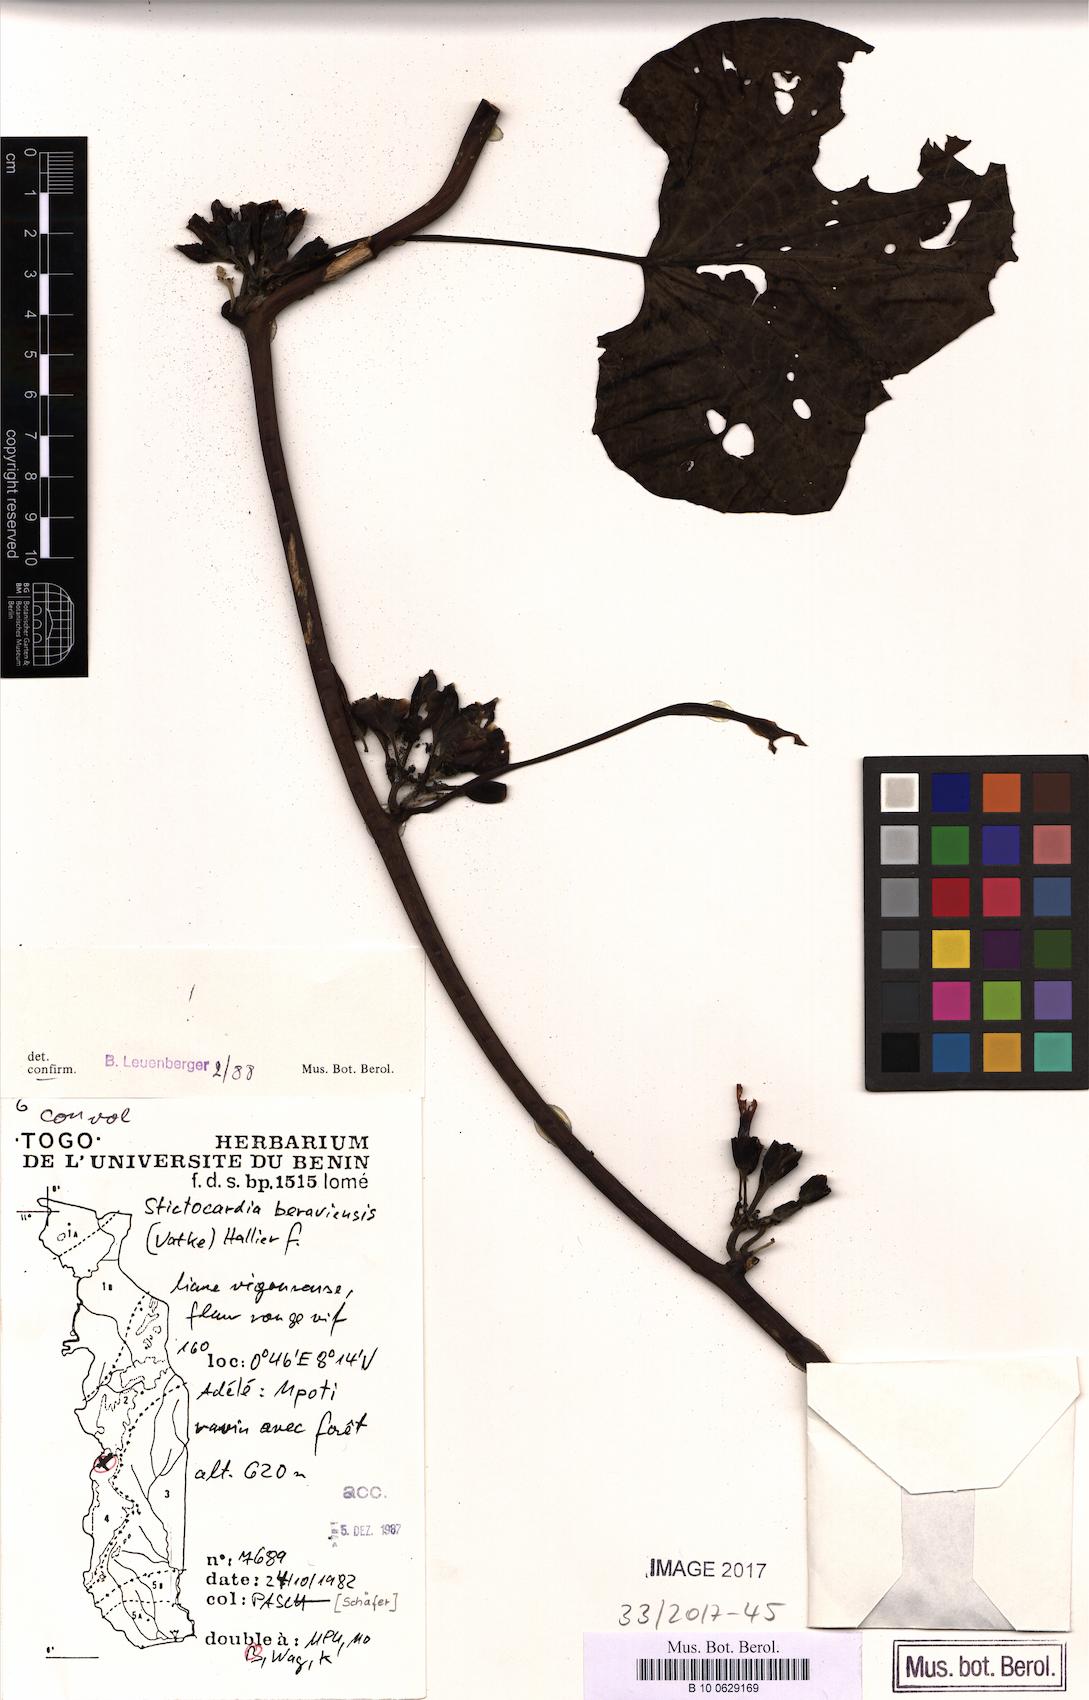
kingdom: Plantae
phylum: Tracheophyta
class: Magnoliopsida
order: Solanales
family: Convolvulaceae
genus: Stictocardia
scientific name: Stictocardia beraviensis
